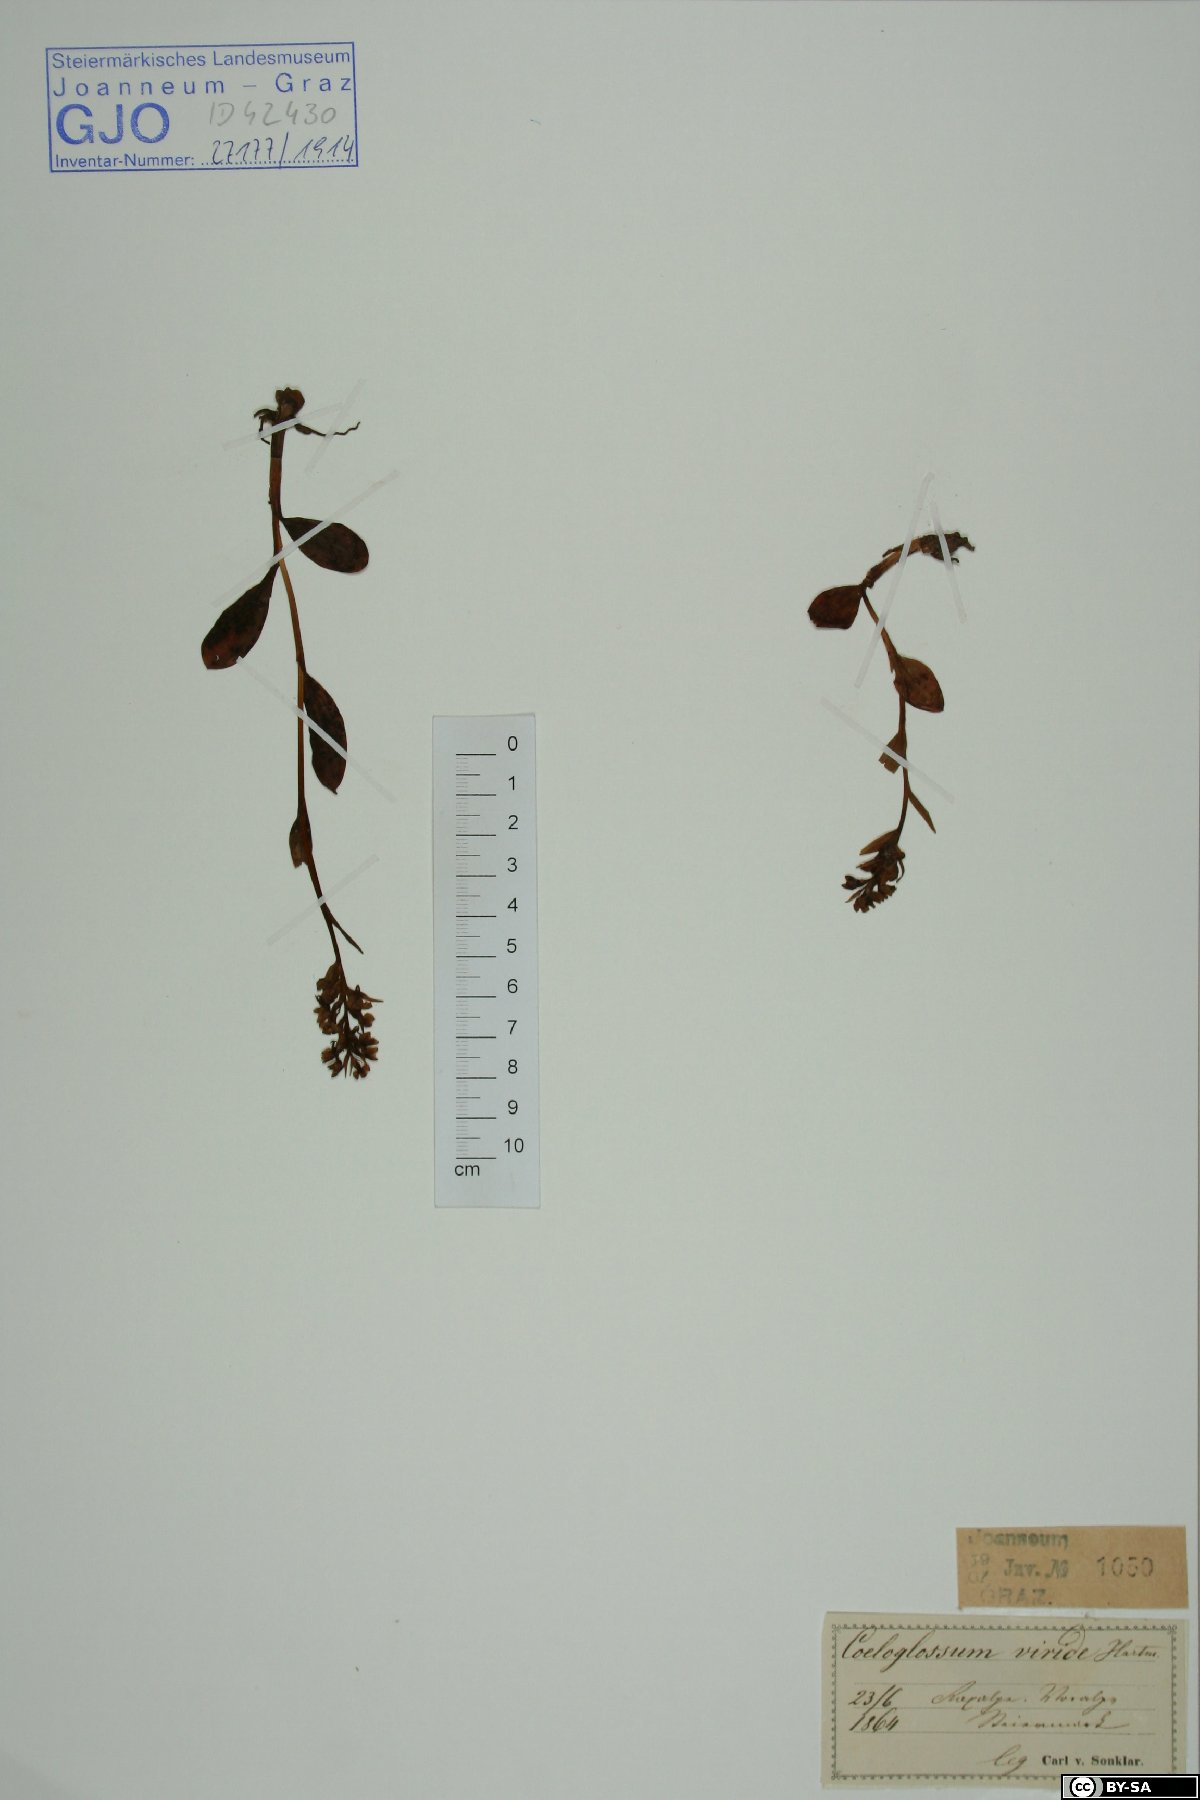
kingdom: Plantae
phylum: Tracheophyta
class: Liliopsida
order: Asparagales
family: Orchidaceae
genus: Dactylorhiza
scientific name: Dactylorhiza viridis
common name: Longbract frog orchid
